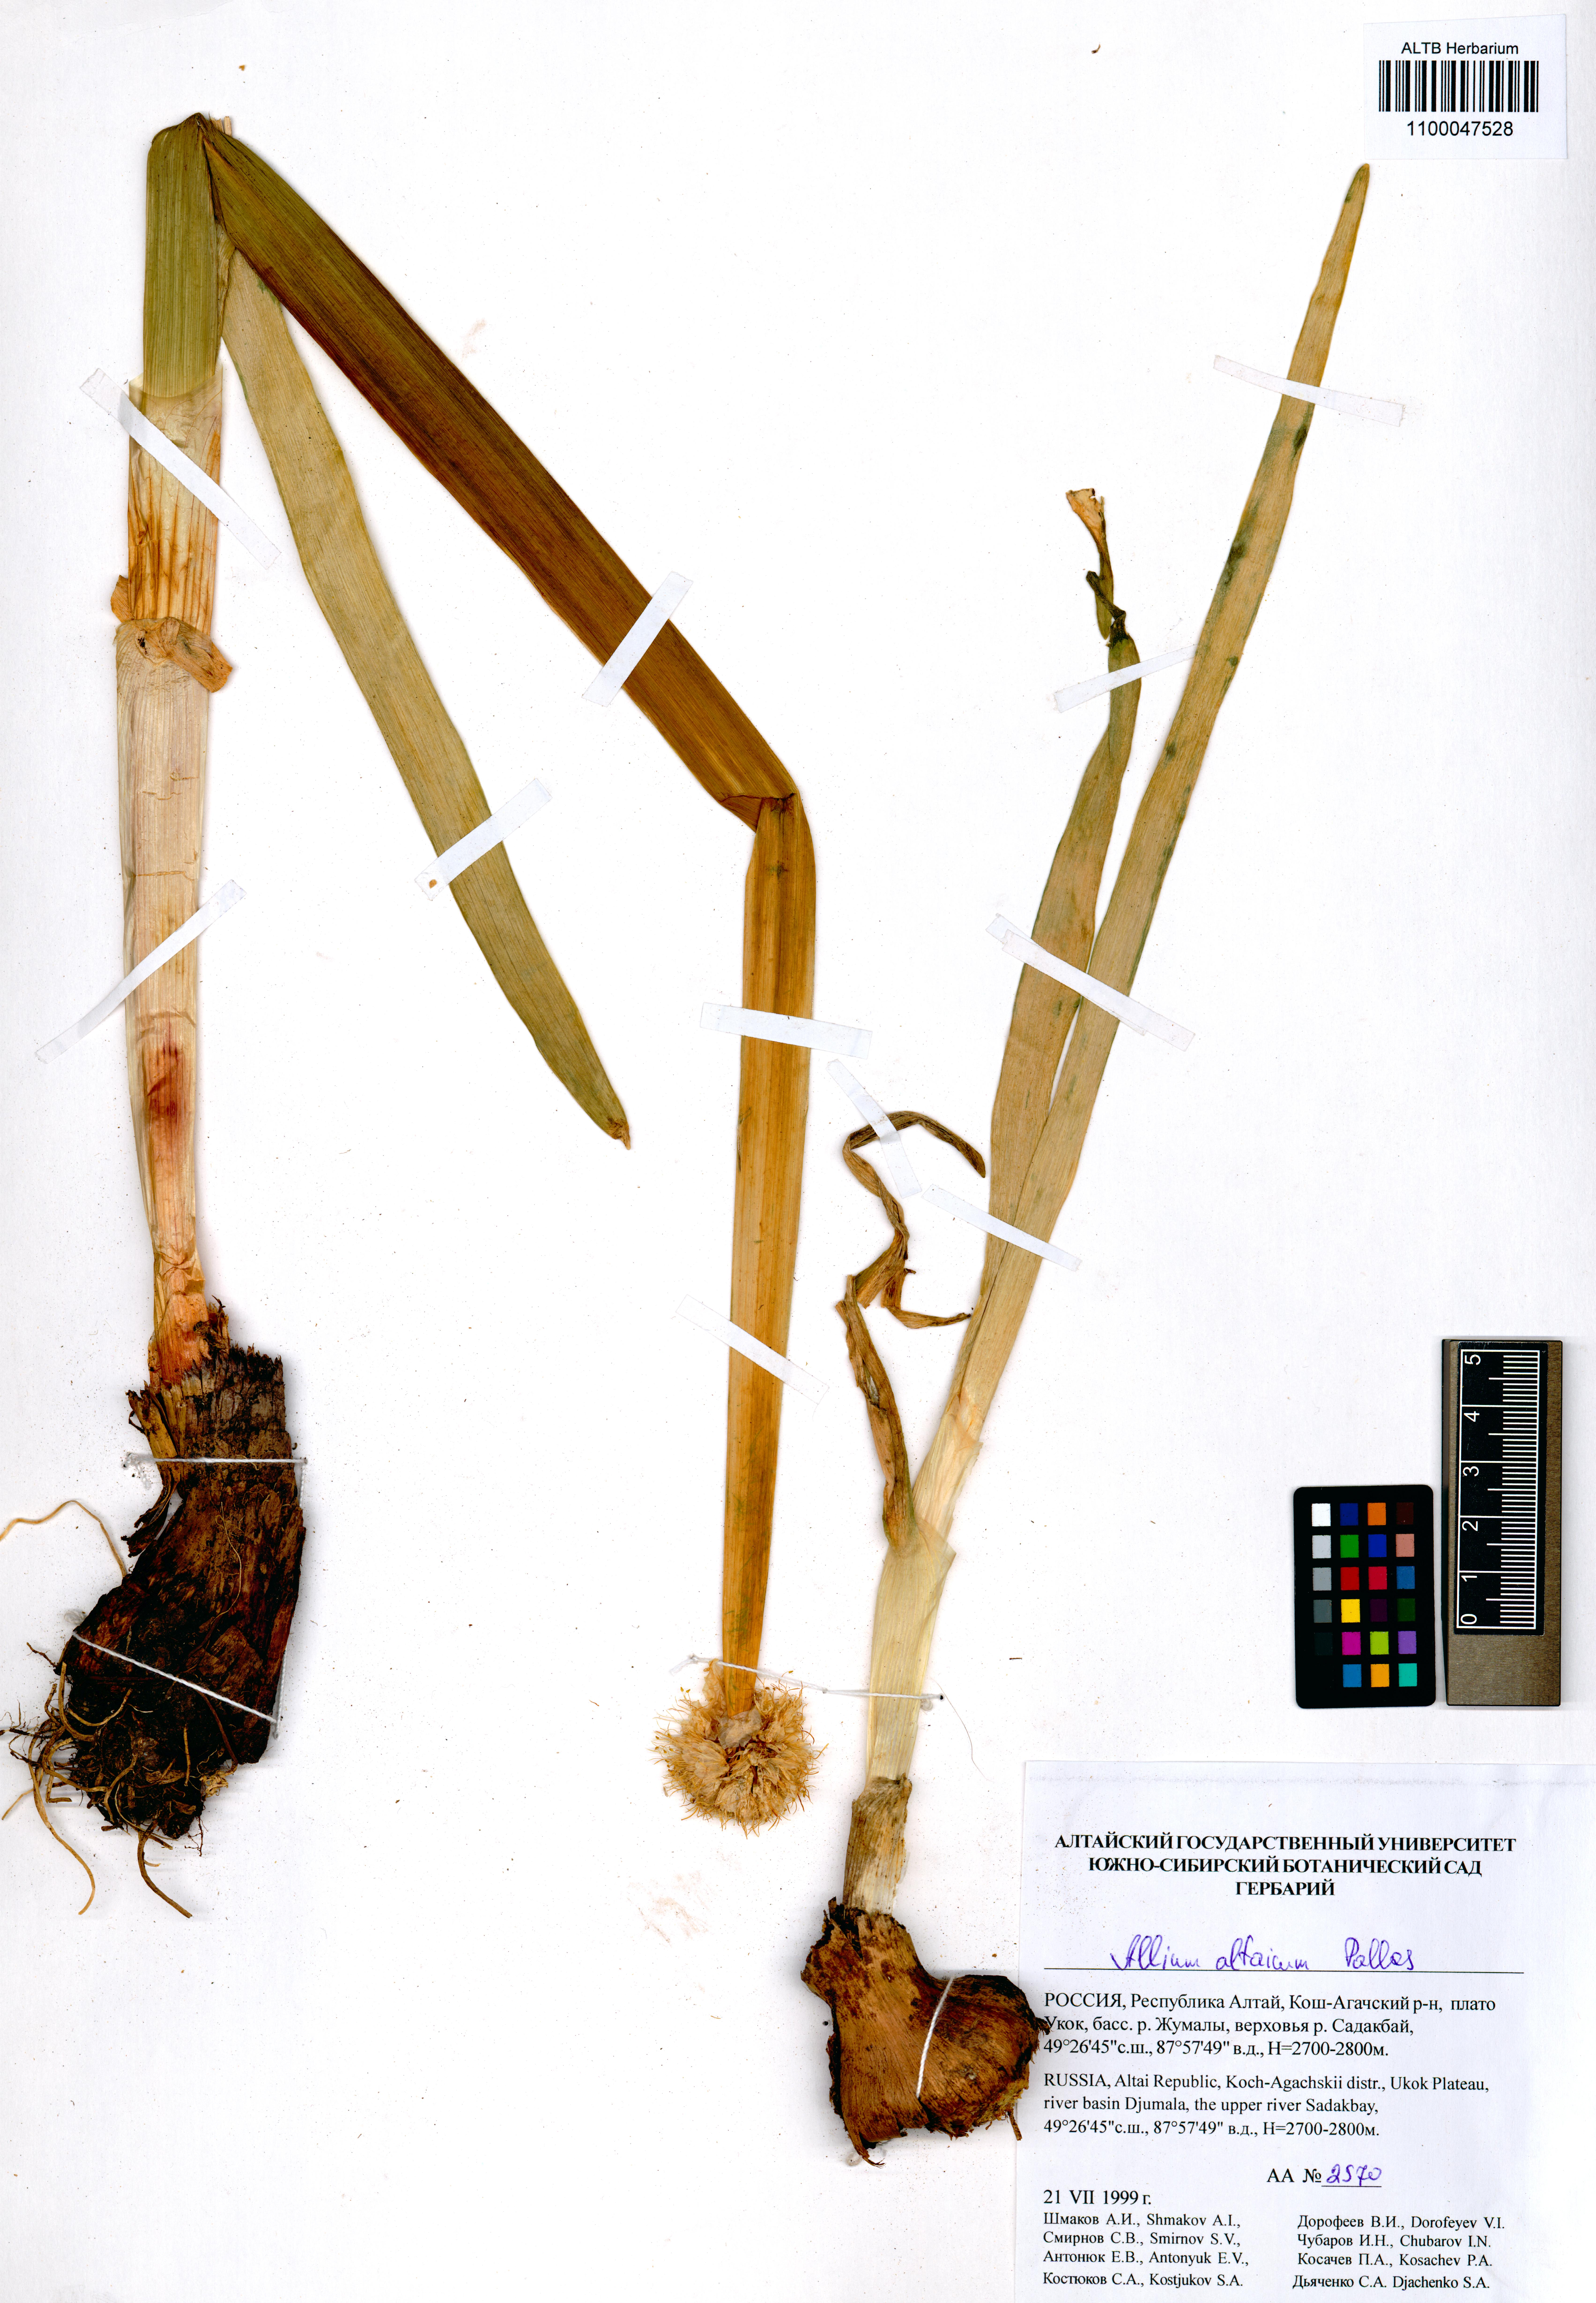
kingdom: Plantae
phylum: Tracheophyta
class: Liliopsida
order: Asparagales
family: Amaryllidaceae
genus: Allium
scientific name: Allium altaicum
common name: Altai onion
